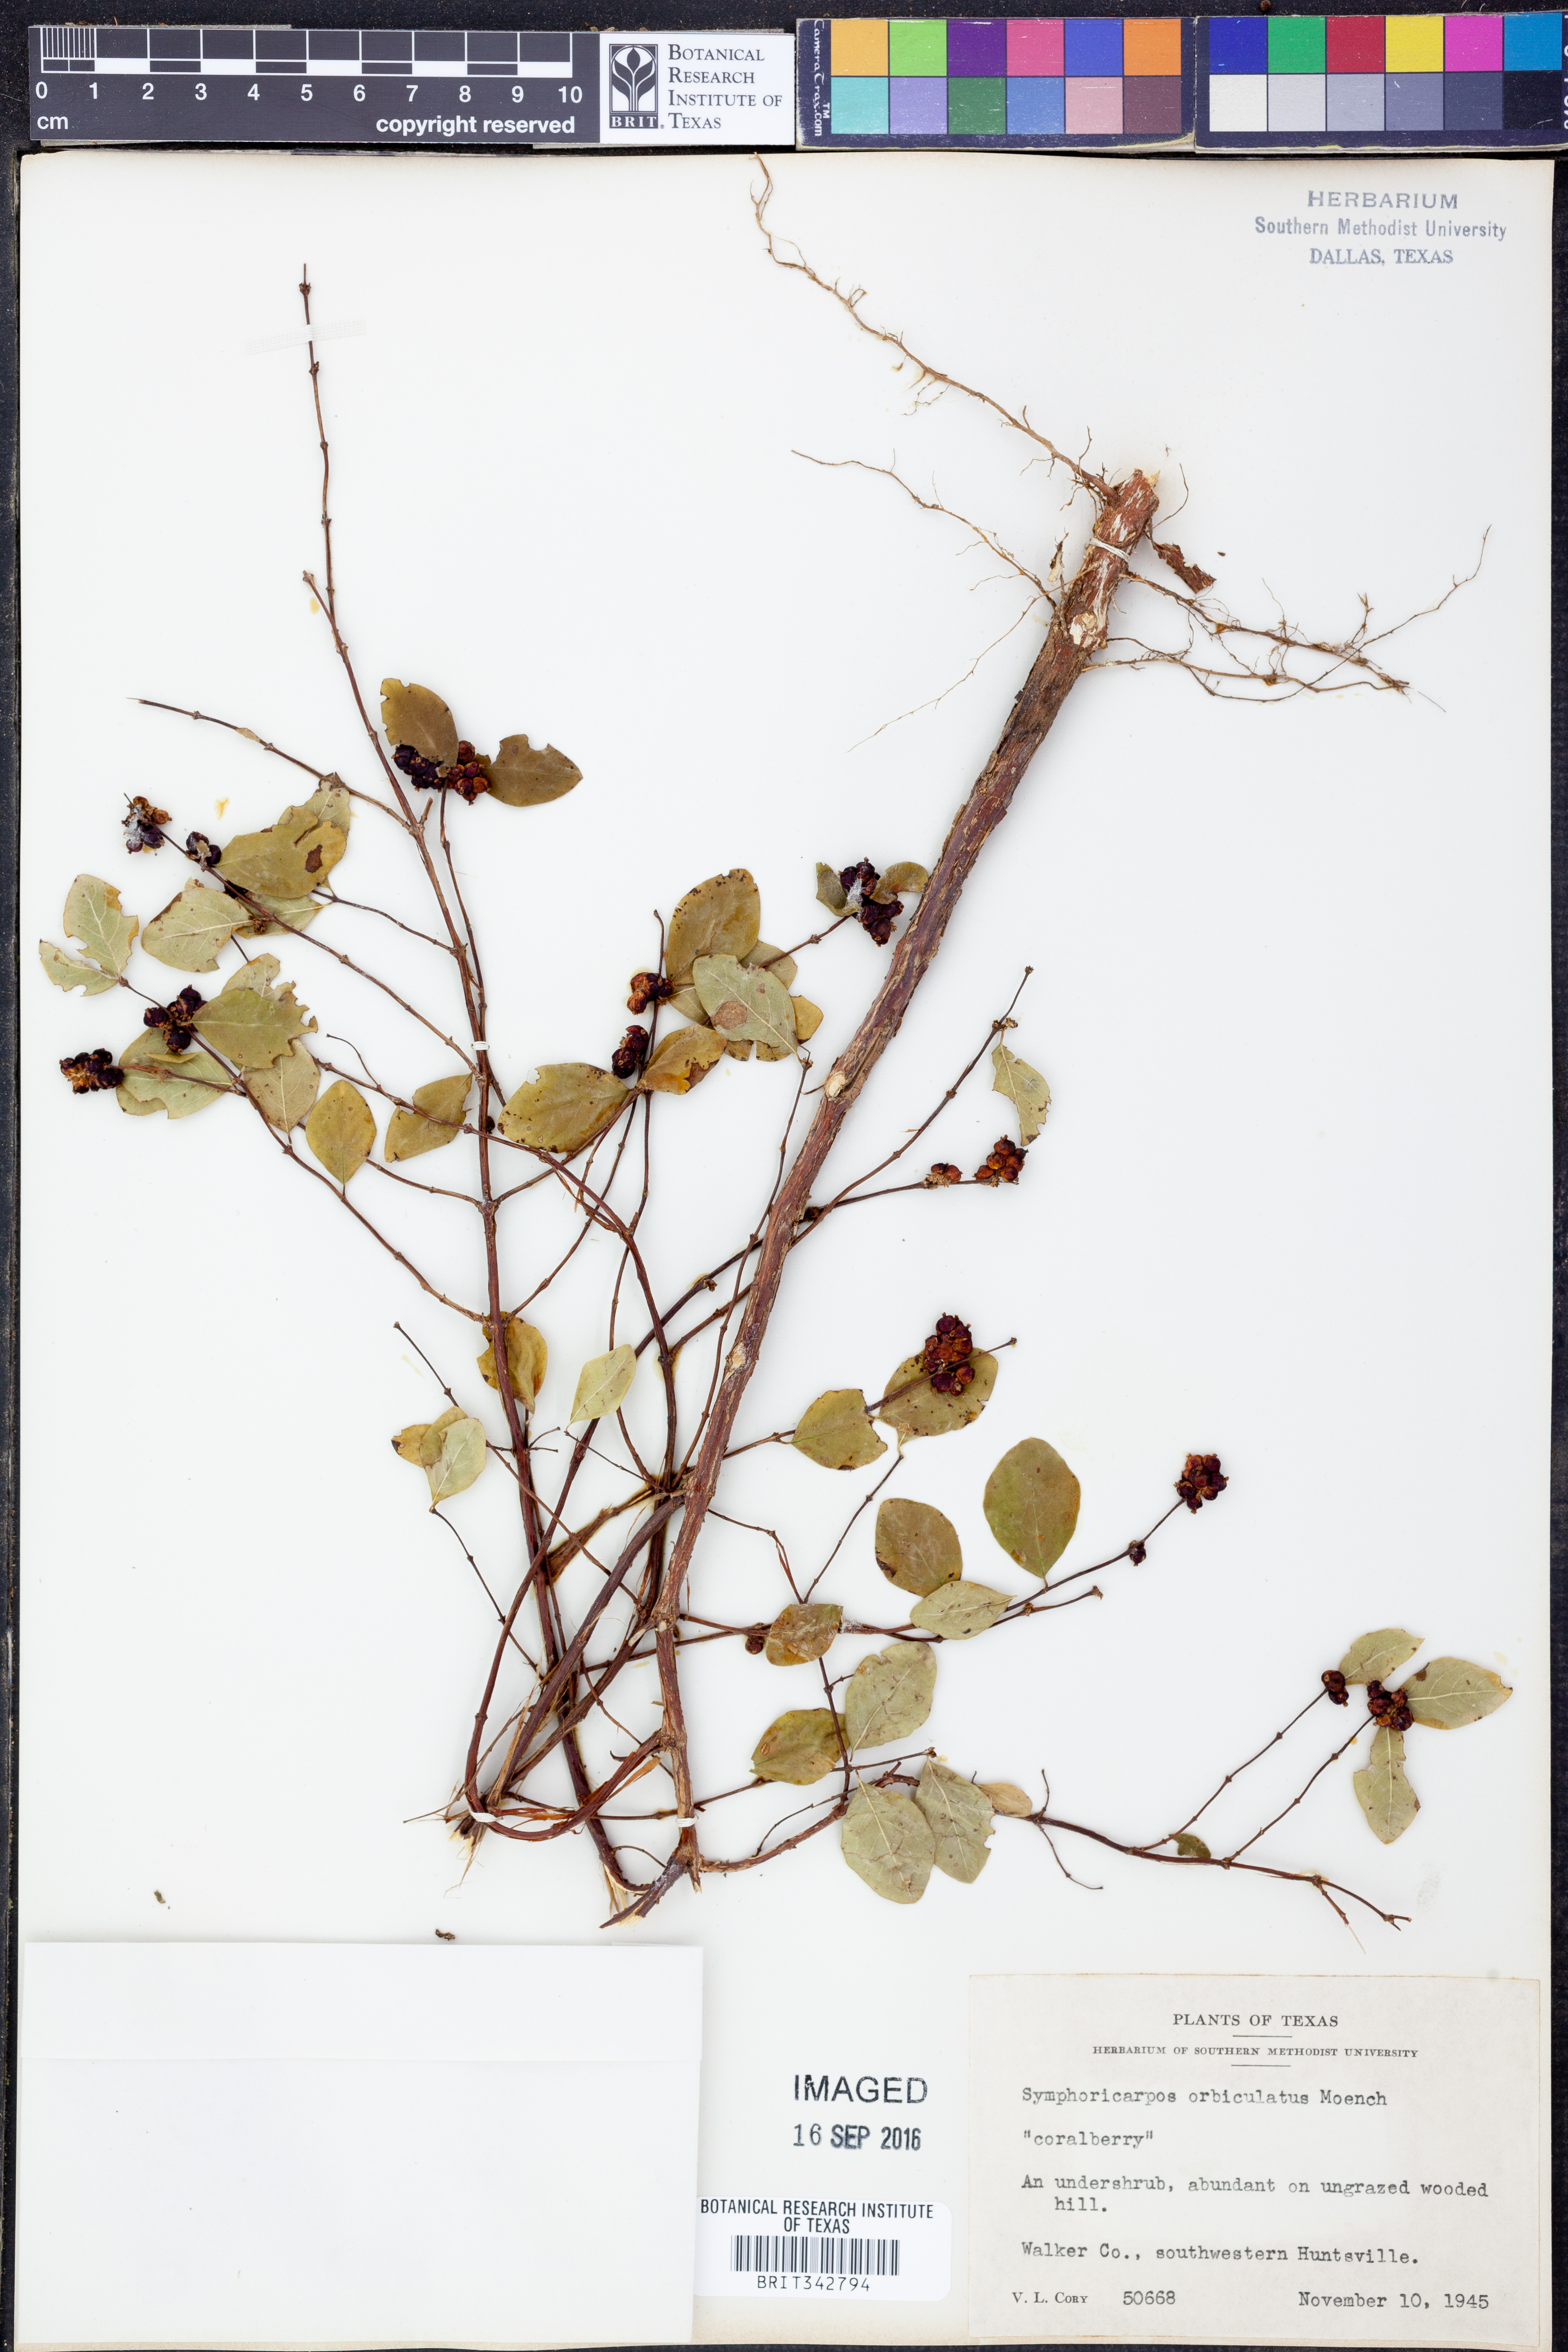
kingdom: Plantae
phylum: Tracheophyta
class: Magnoliopsida
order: Dipsacales
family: Caprifoliaceae
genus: Symphoricarpos
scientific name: Symphoricarpos orbiculatus
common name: Coralberry
